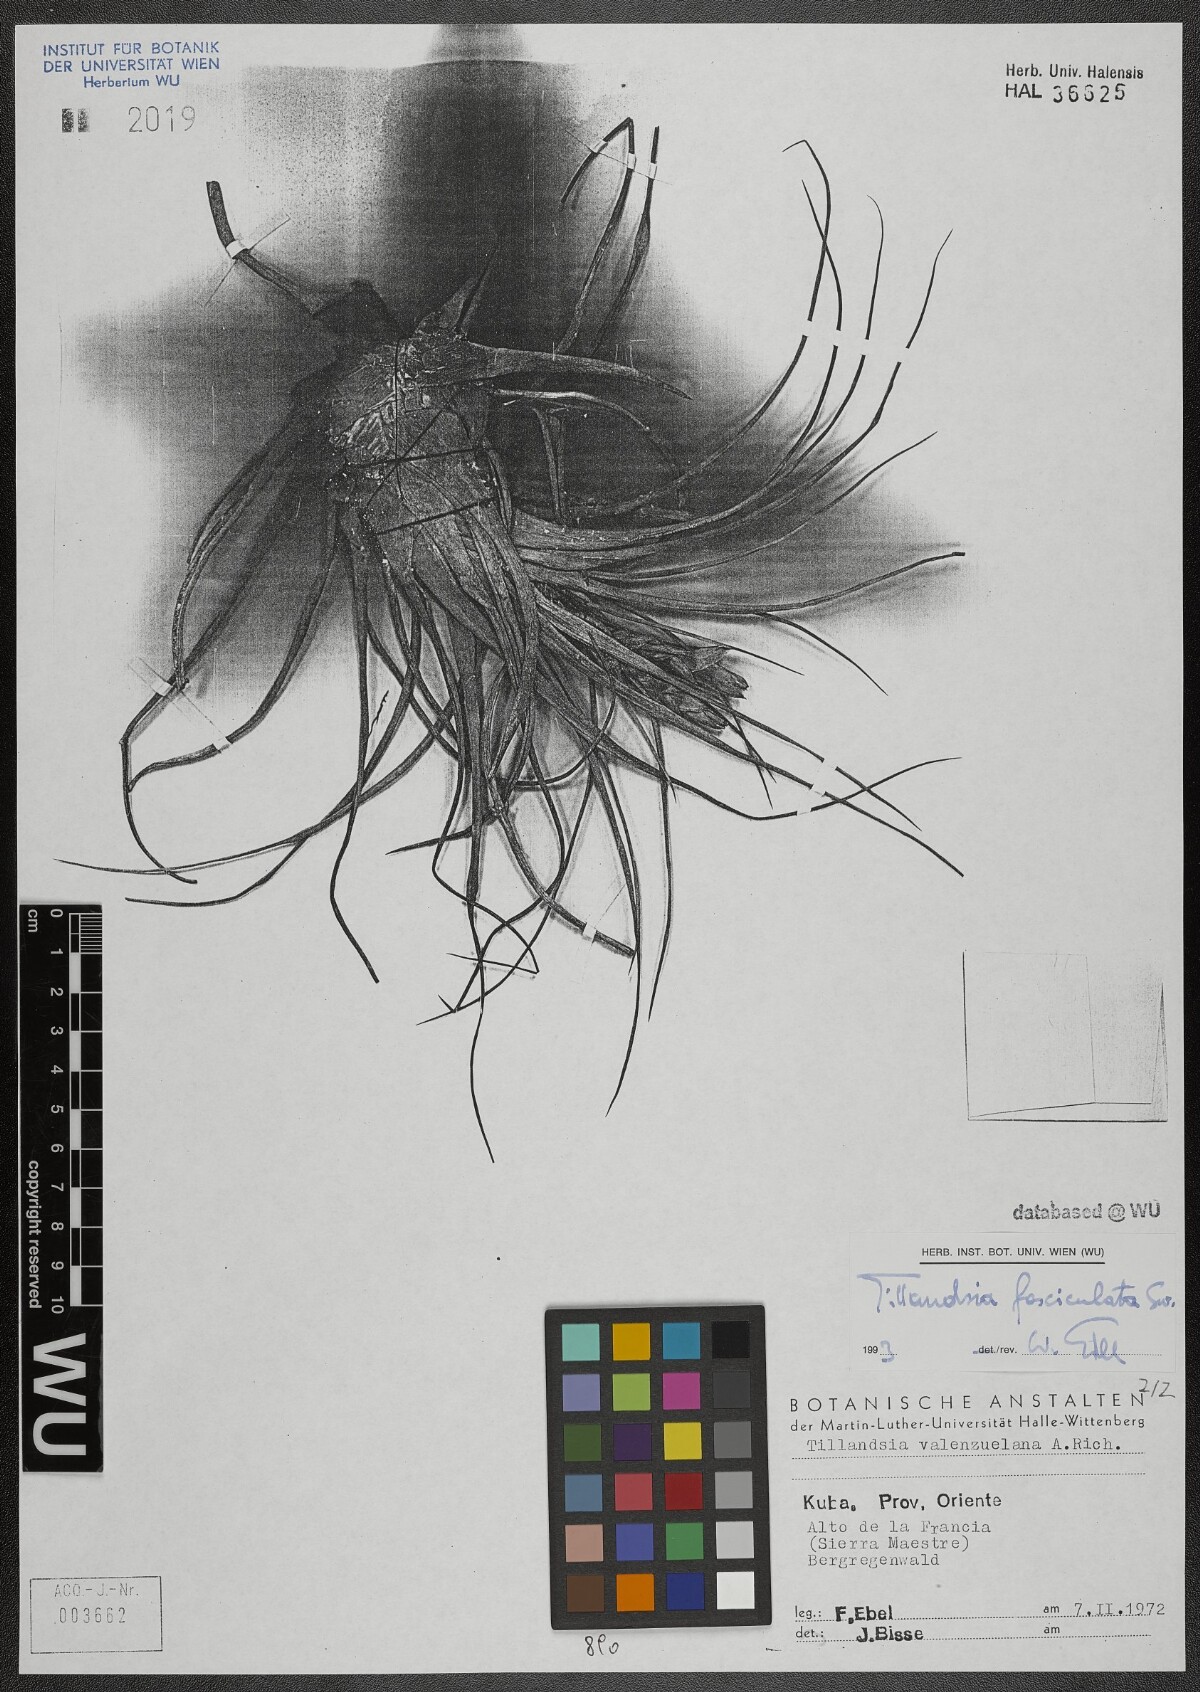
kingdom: Plantae
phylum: Tracheophyta
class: Liliopsida
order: Poales
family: Bromeliaceae
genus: Tillandsia
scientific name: Tillandsia fasciculata
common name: Giant airplant
